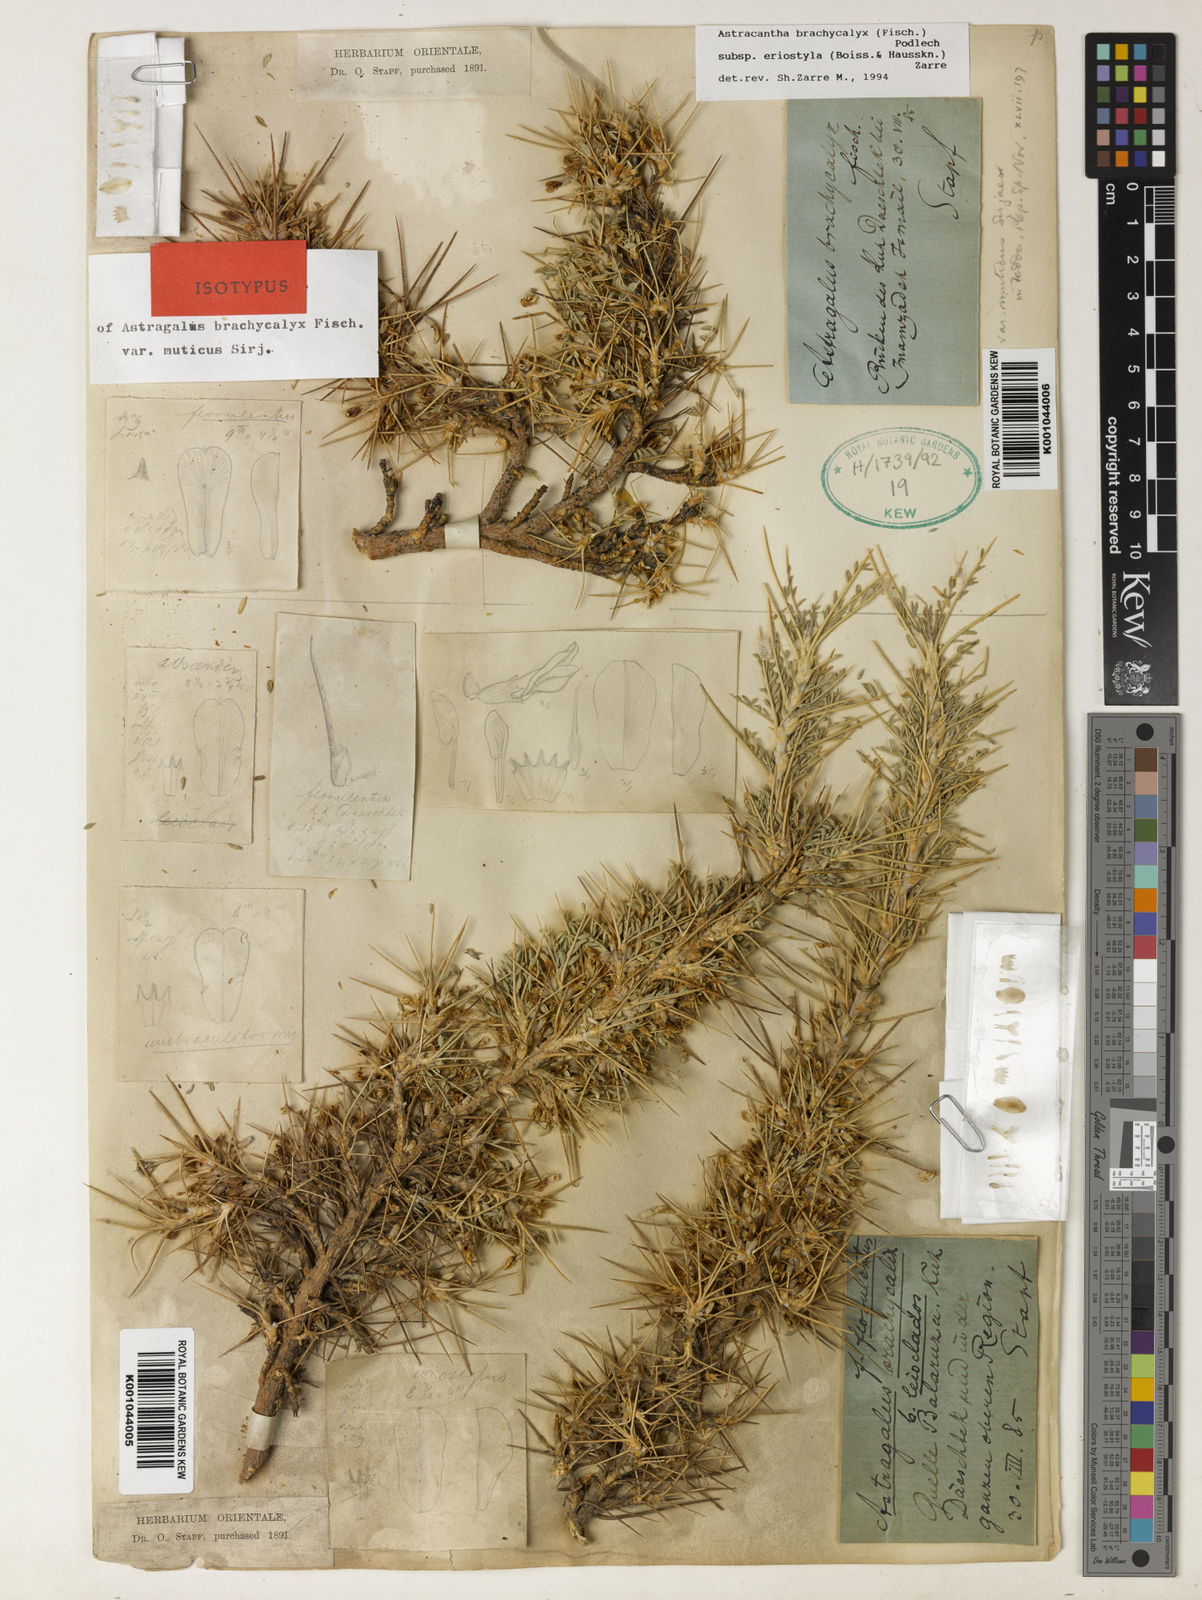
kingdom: Plantae
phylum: Tracheophyta
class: Magnoliopsida
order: Fabales
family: Fabaceae
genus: Astragalus
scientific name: Astragalus brachycalyx
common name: Persian manna
